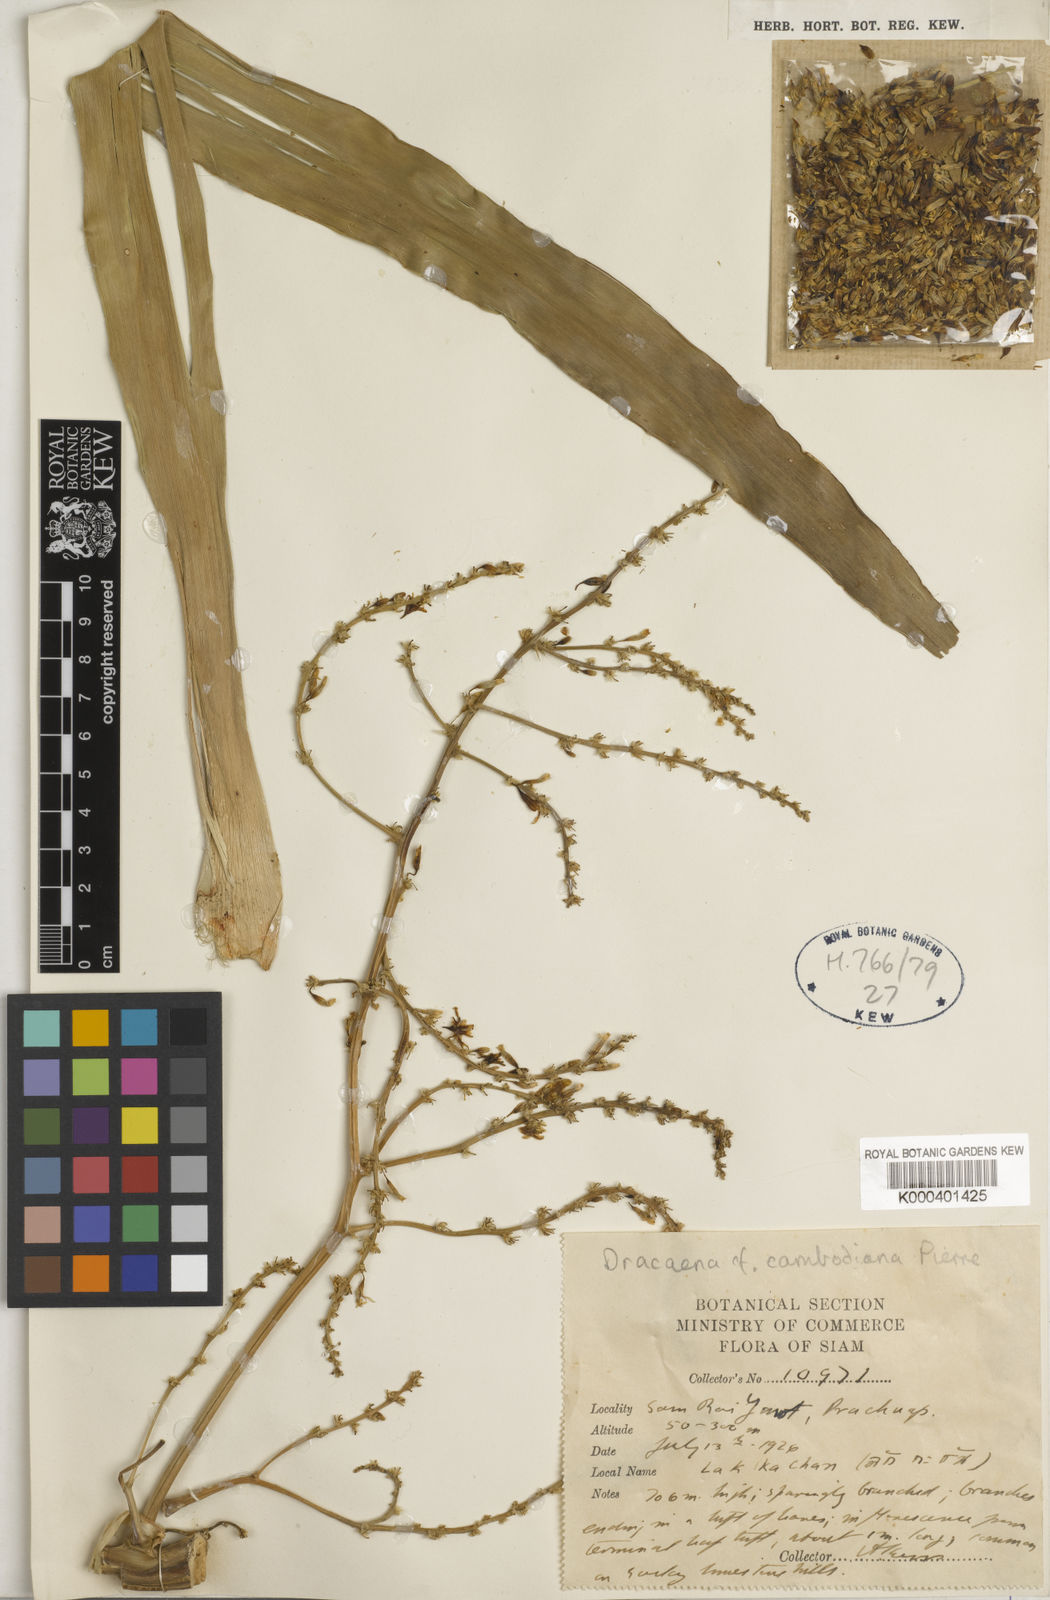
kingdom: Plantae
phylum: Tracheophyta
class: Liliopsida
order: Asparagales
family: Asparagaceae
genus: Dracaena
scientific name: Dracaena cambodiana
